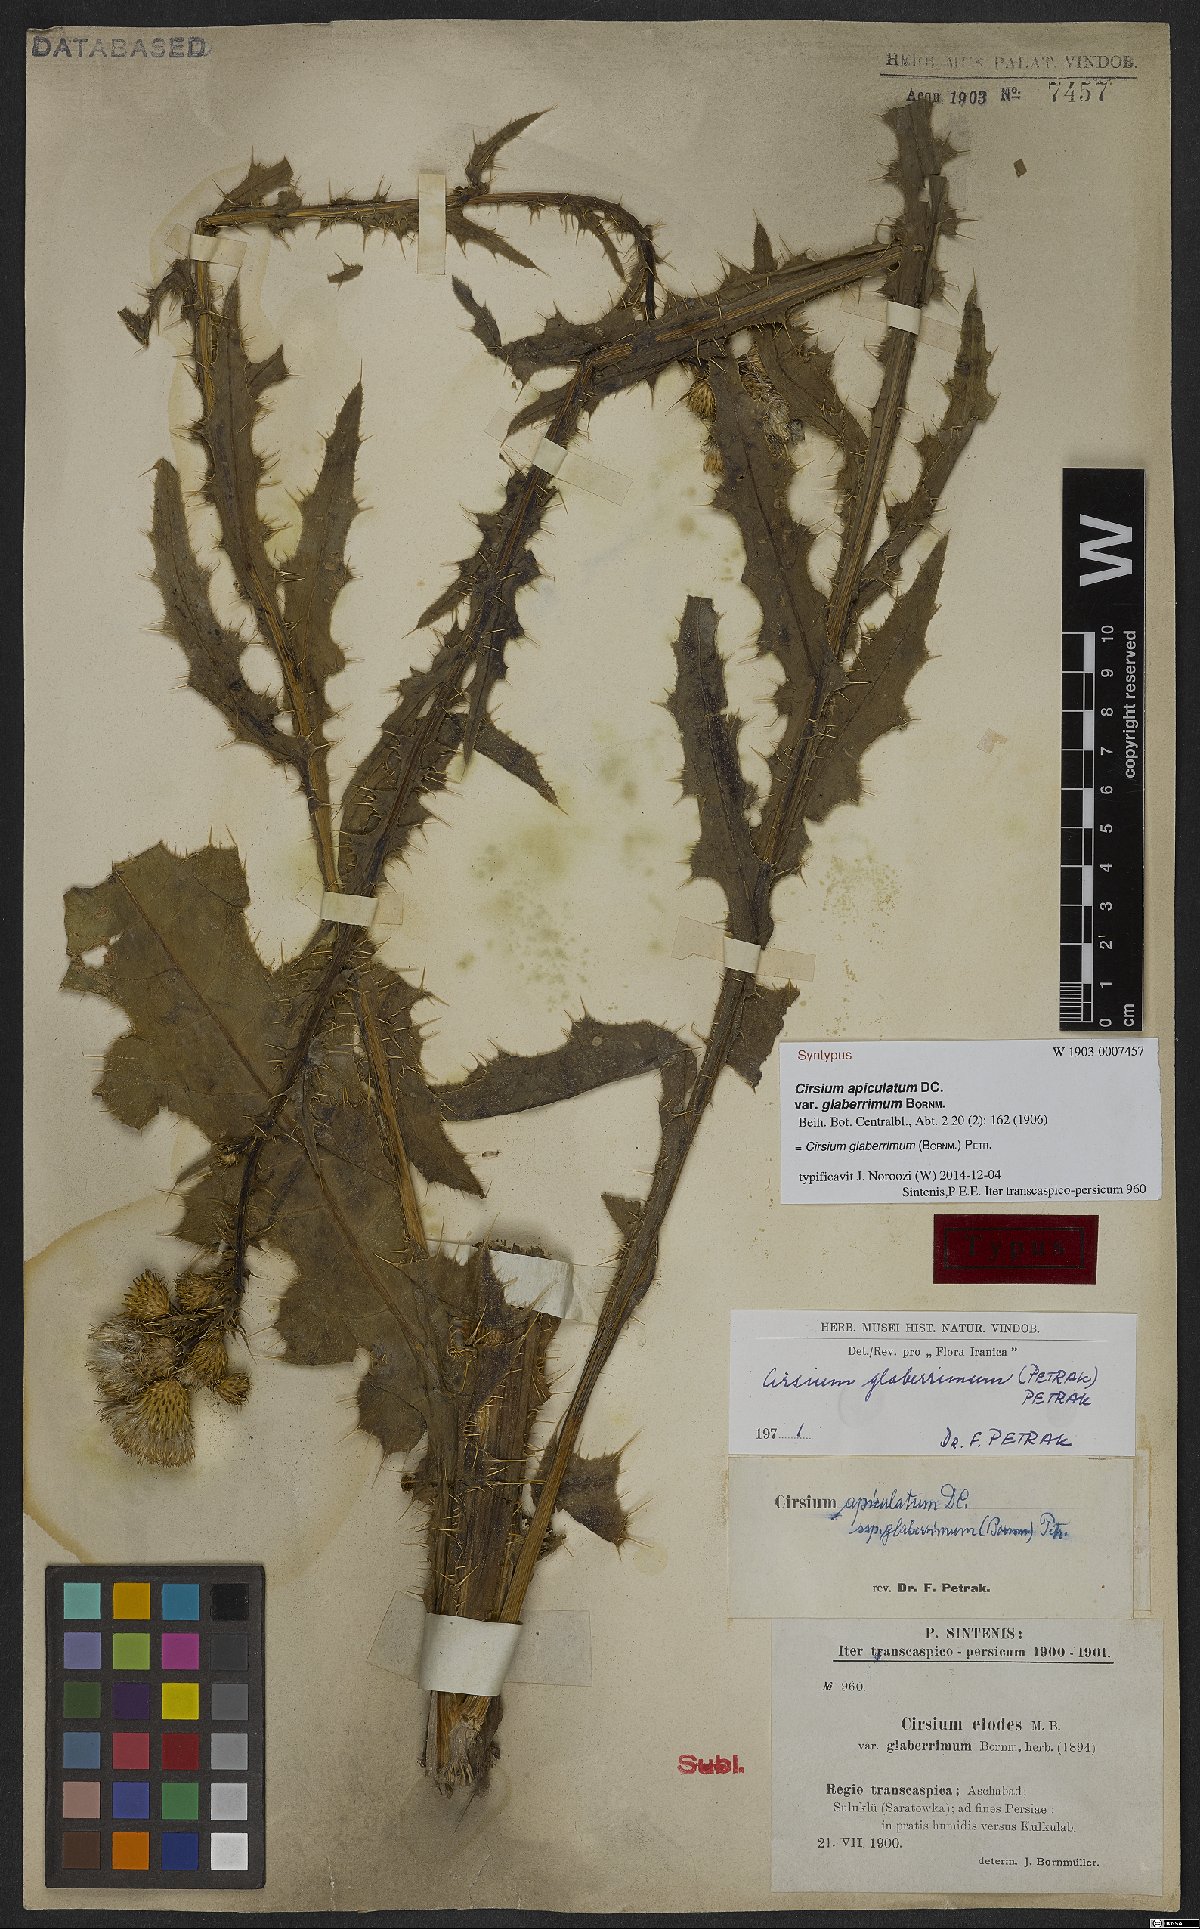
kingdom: Plantae
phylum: Tracheophyta
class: Magnoliopsida
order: Asterales
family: Asteraceae
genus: Cirsium
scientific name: Cirsium glaberrimum
